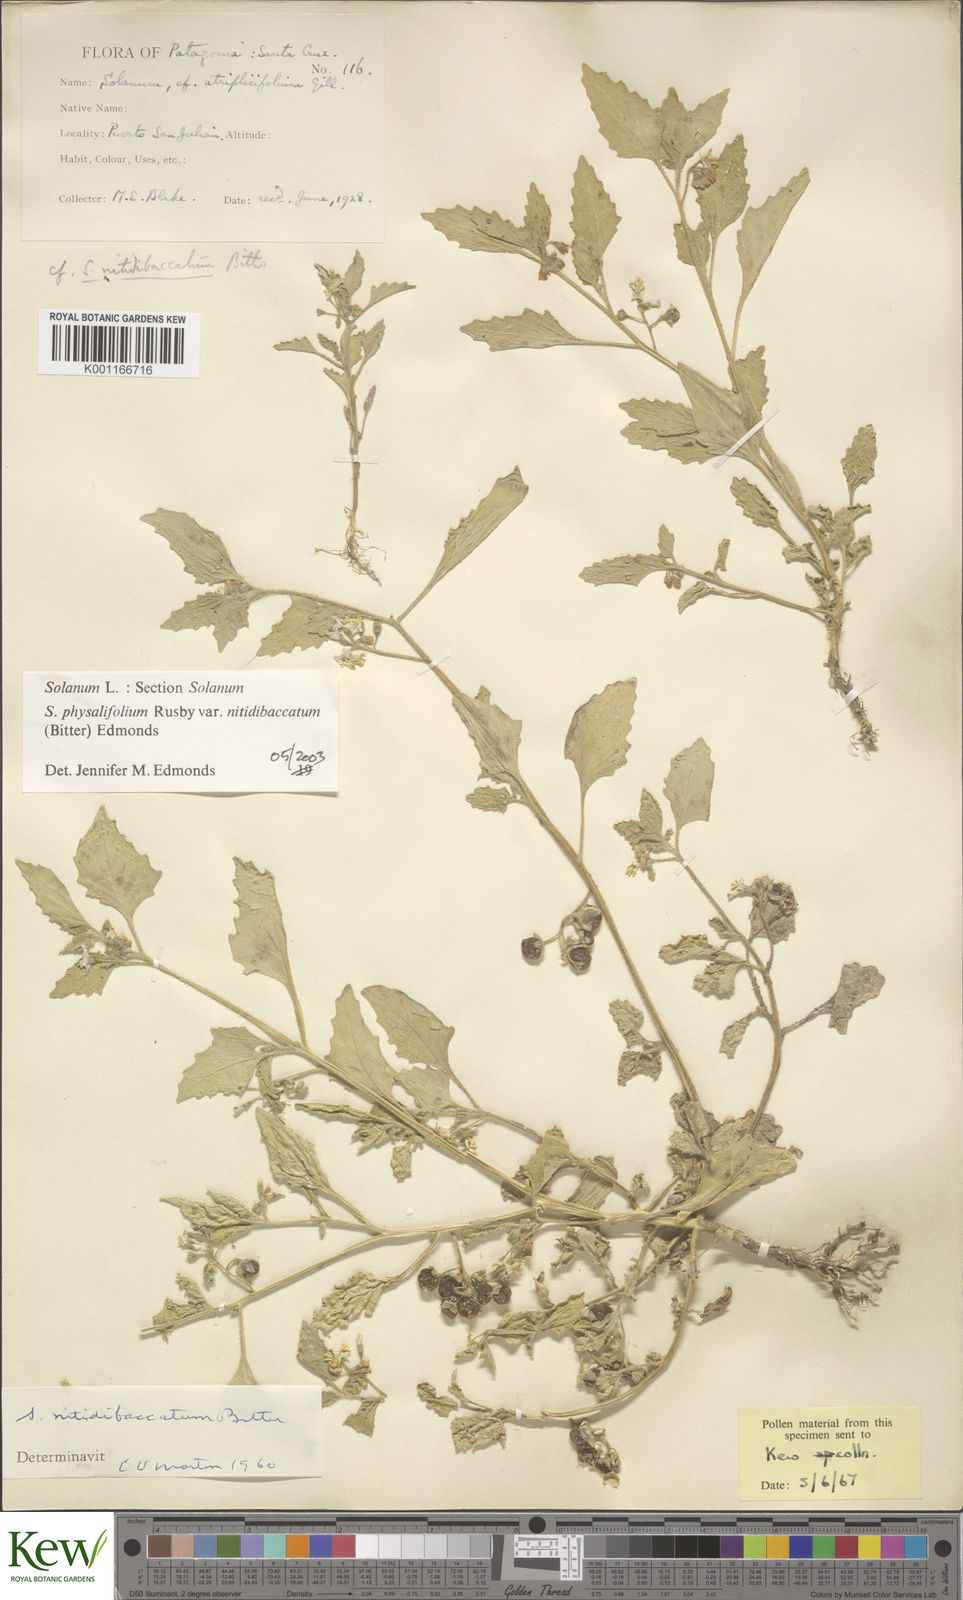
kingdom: Plantae
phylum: Tracheophyta
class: Magnoliopsida
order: Solanales
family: Solanaceae
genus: Solanum
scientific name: Solanum nitidibaccatum
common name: Hairy nightshade
